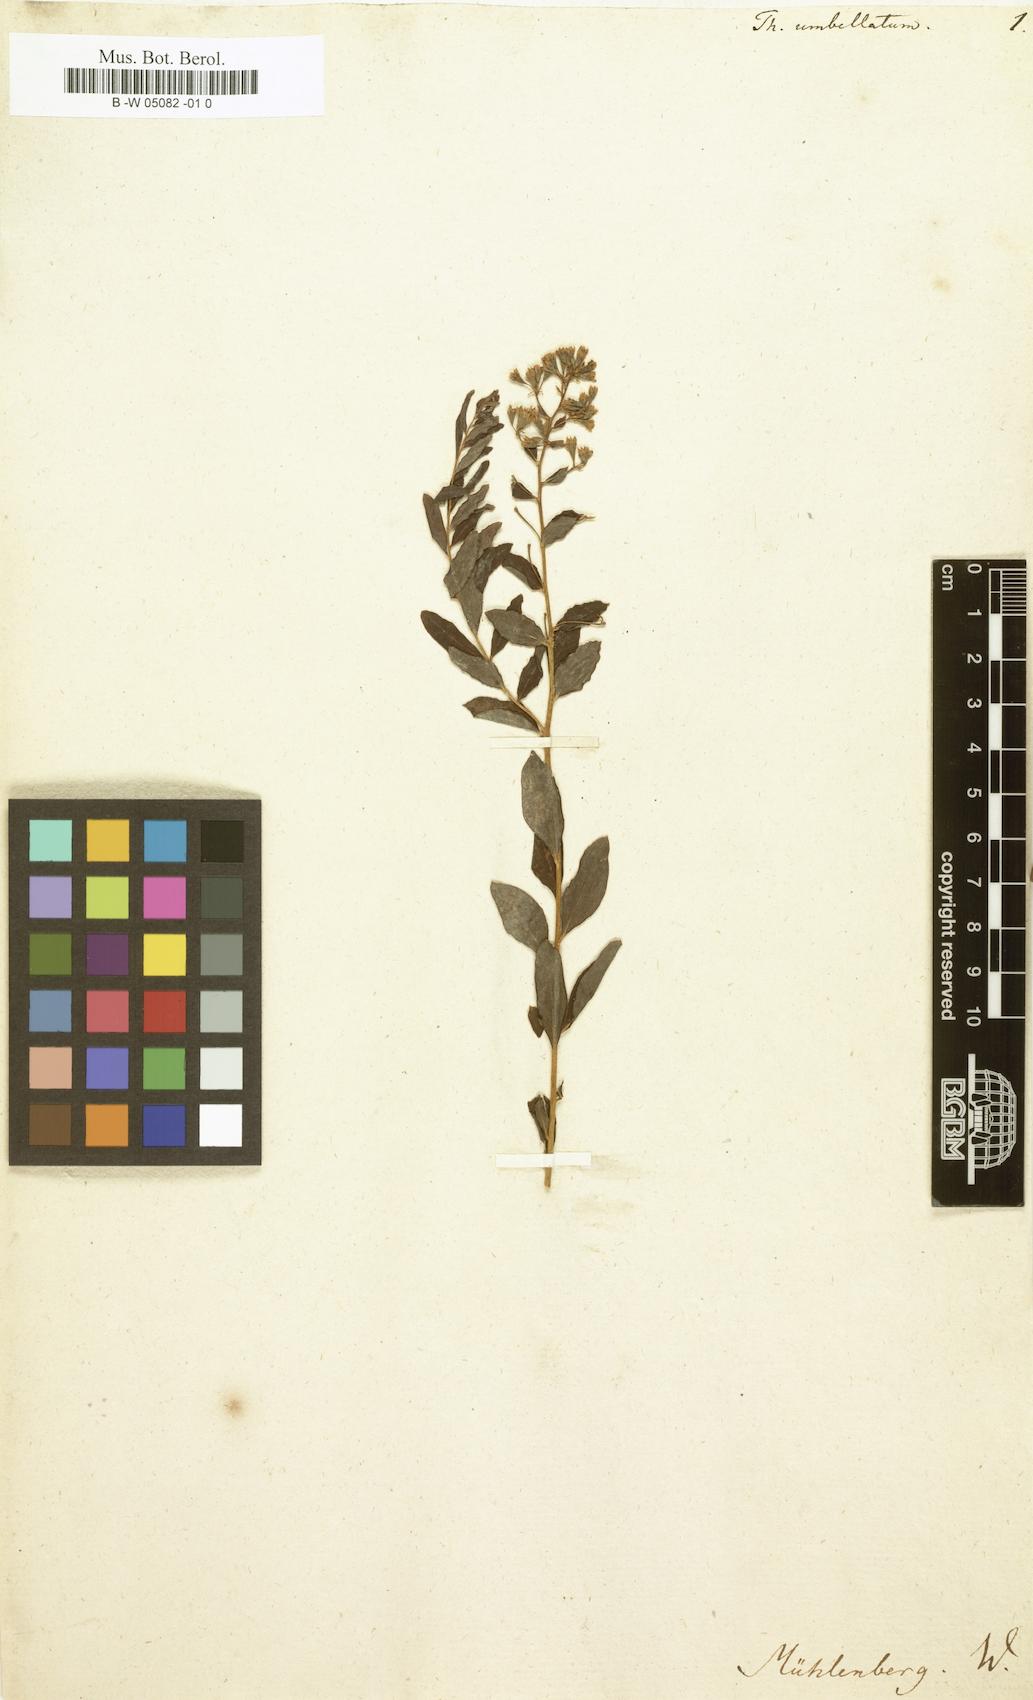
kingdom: Plantae
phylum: Tracheophyta
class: Magnoliopsida
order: Santalales
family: Comandraceae
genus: Comandra
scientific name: Comandra umbellata
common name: Bastard toadflax
